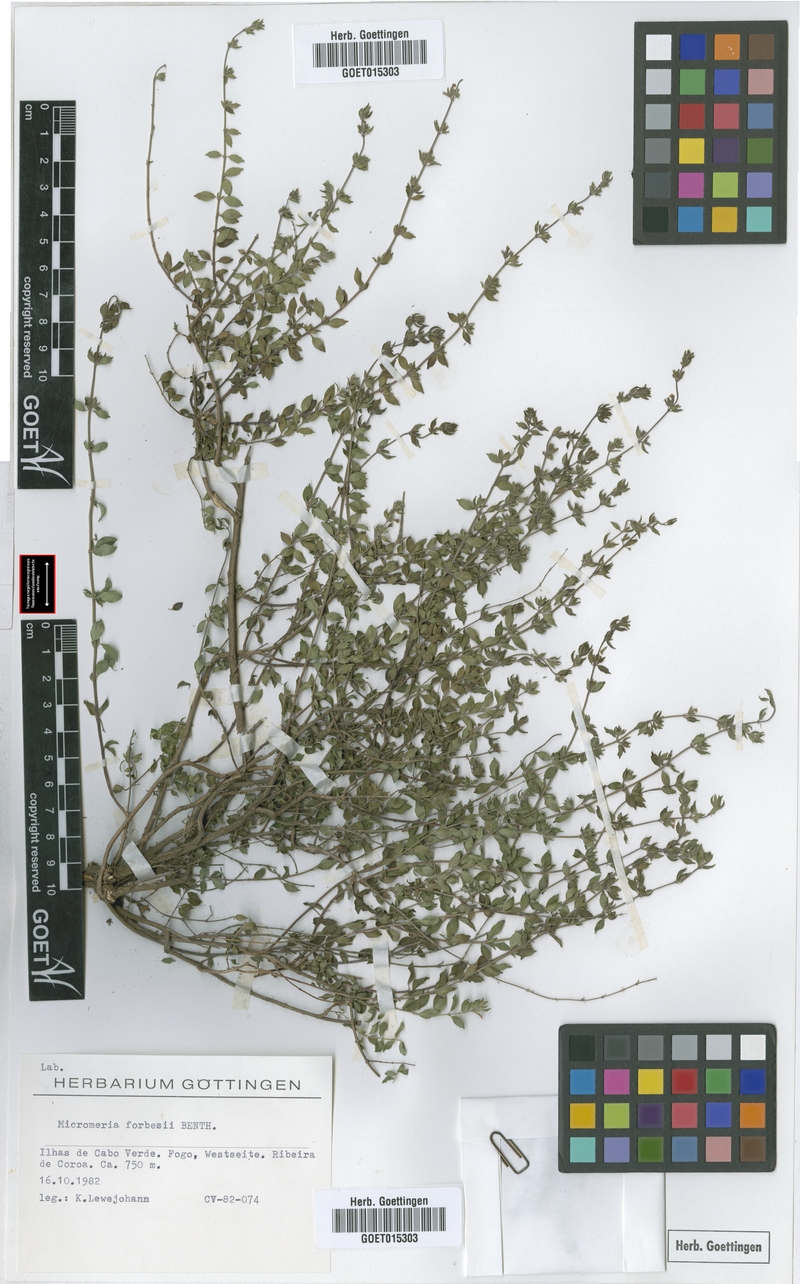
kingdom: Plantae
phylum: Tracheophyta
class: Magnoliopsida
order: Lamiales
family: Lamiaceae
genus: Micromeria
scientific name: Micromeria forbesii
